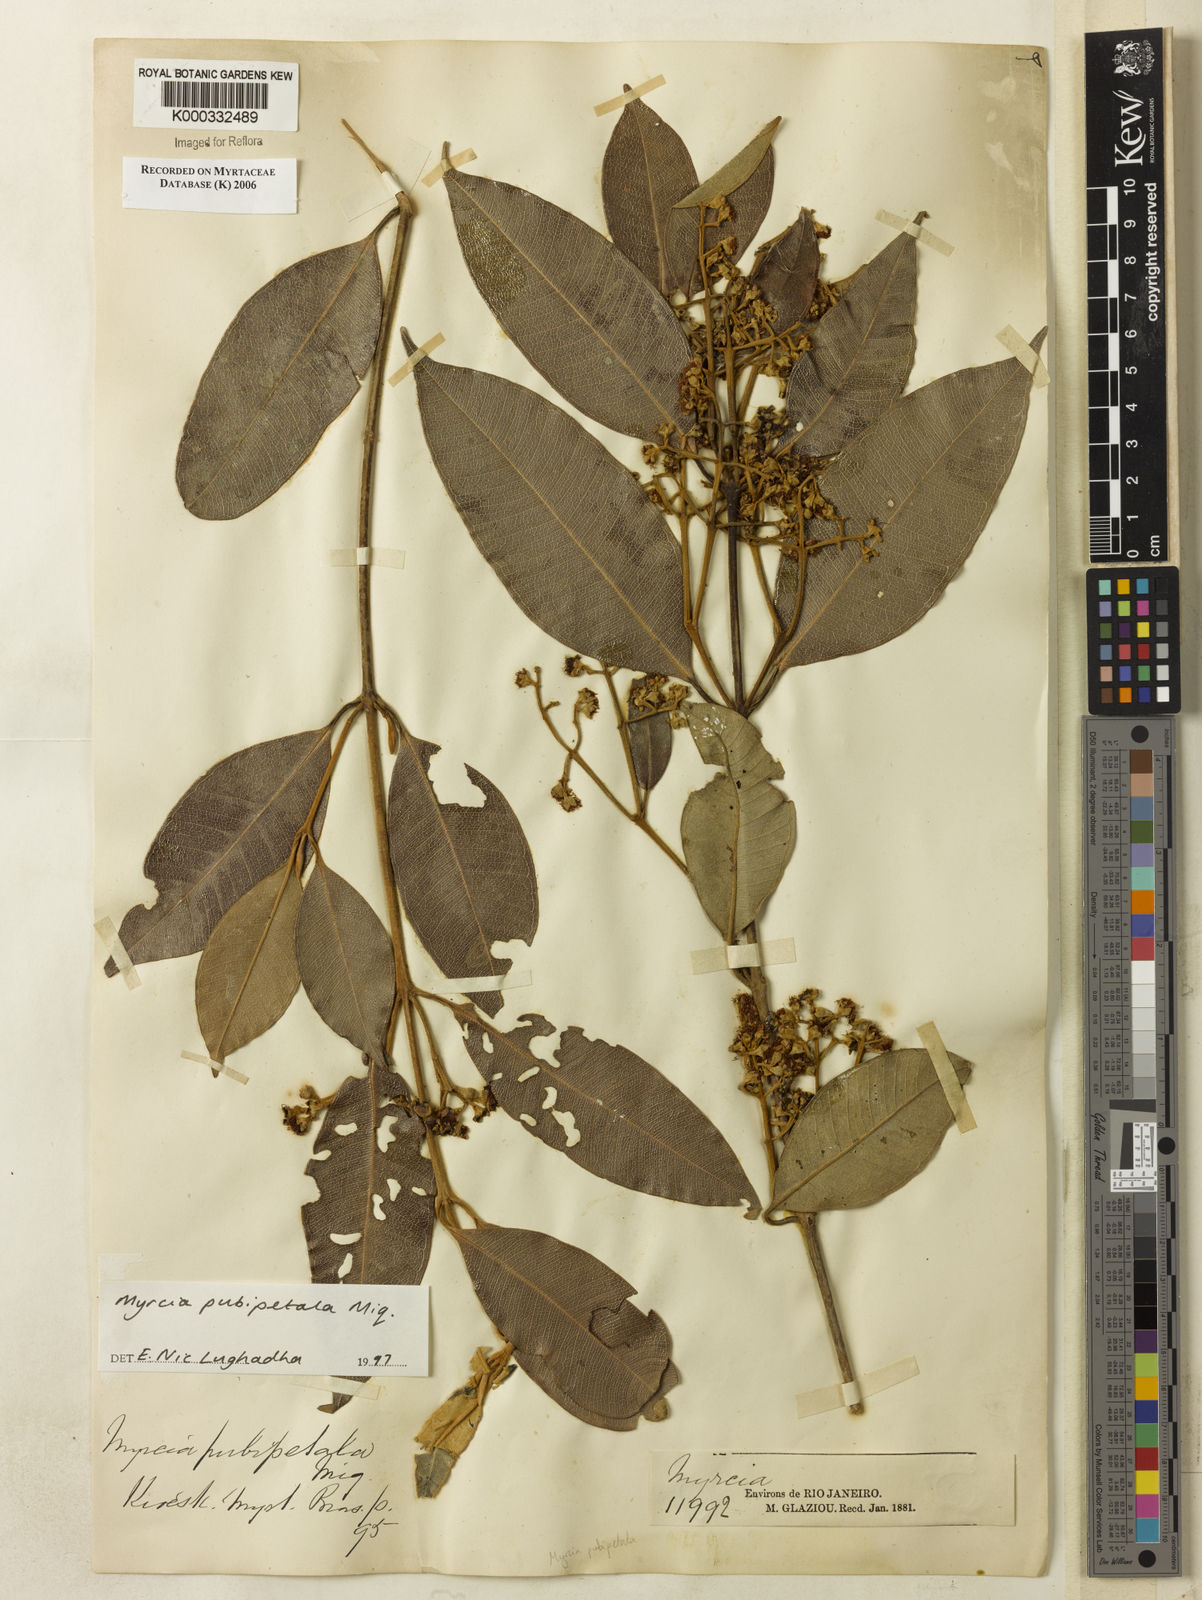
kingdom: Plantae
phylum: Tracheophyta
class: Magnoliopsida
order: Myrtales
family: Myrtaceae
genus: Myrcia
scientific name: Myrcia pubipetala
